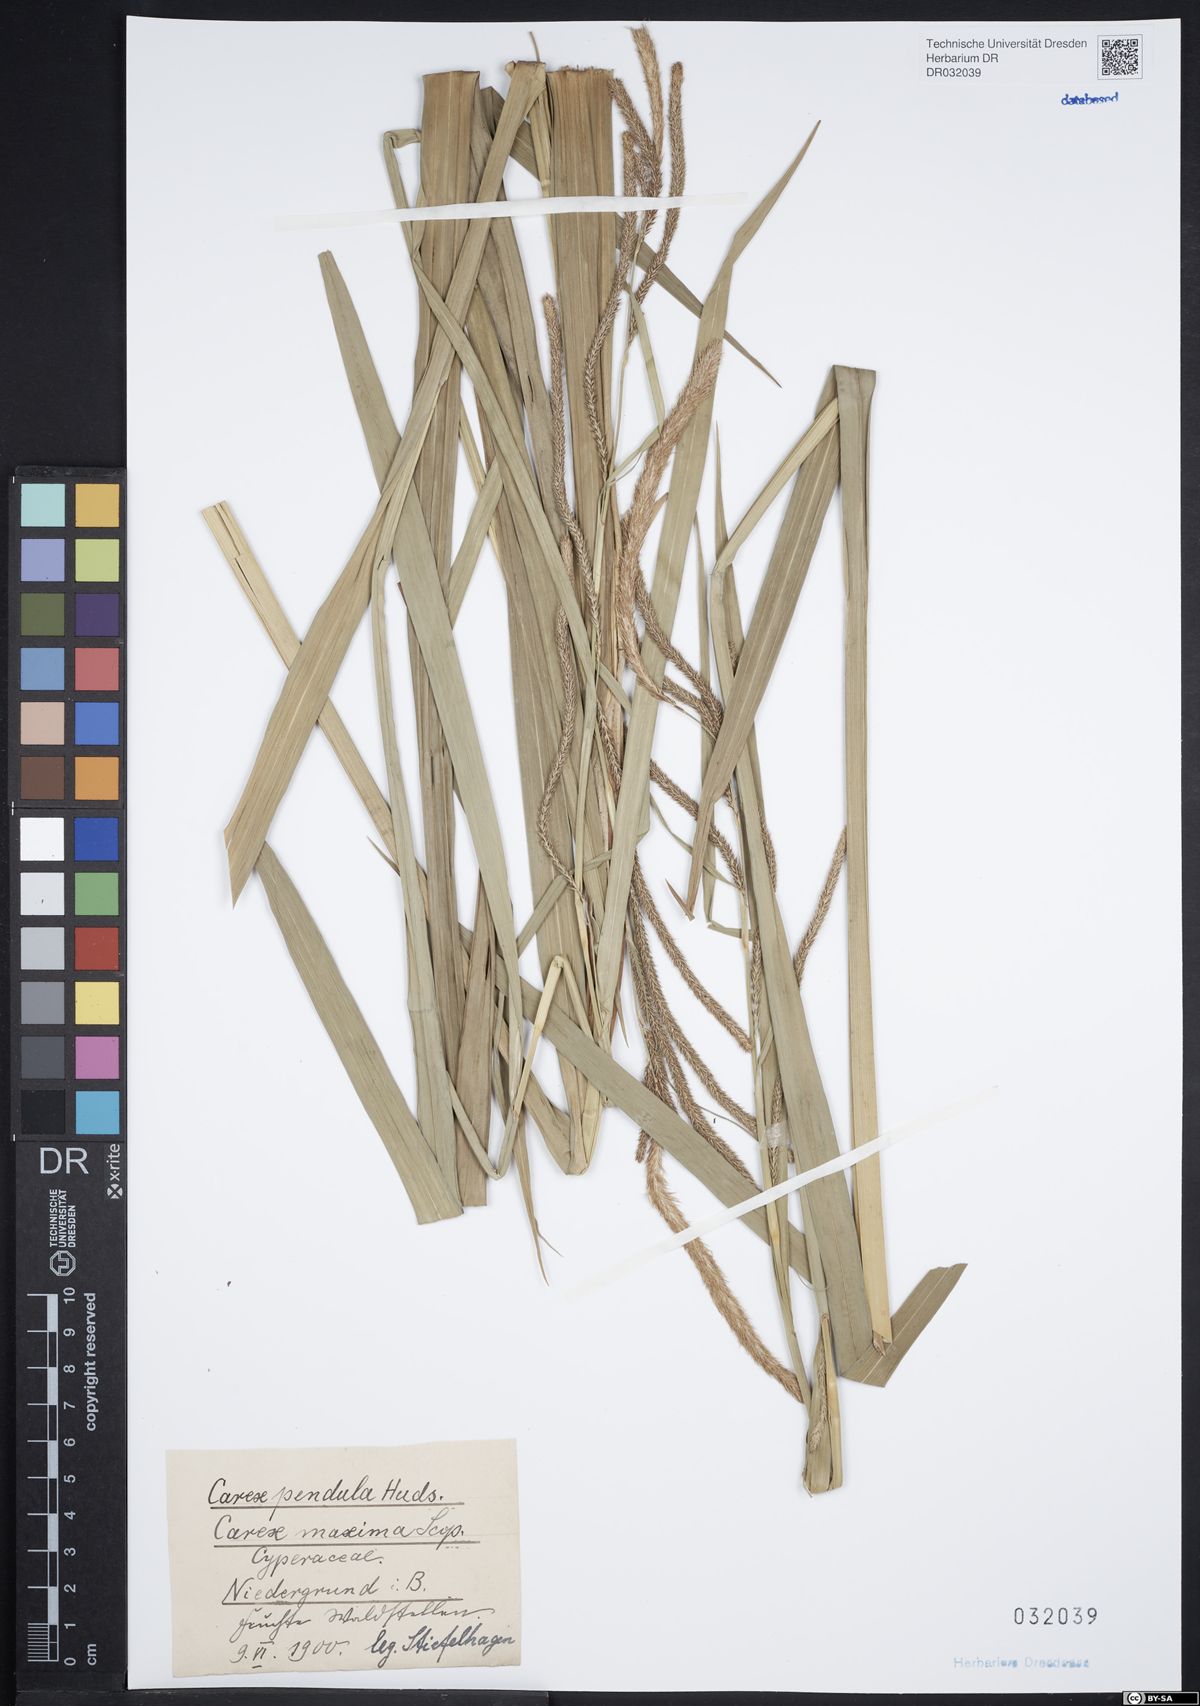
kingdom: Plantae
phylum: Tracheophyta
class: Liliopsida
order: Poales
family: Cyperaceae
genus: Carex
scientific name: Carex pendula
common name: Pendulous sedge
